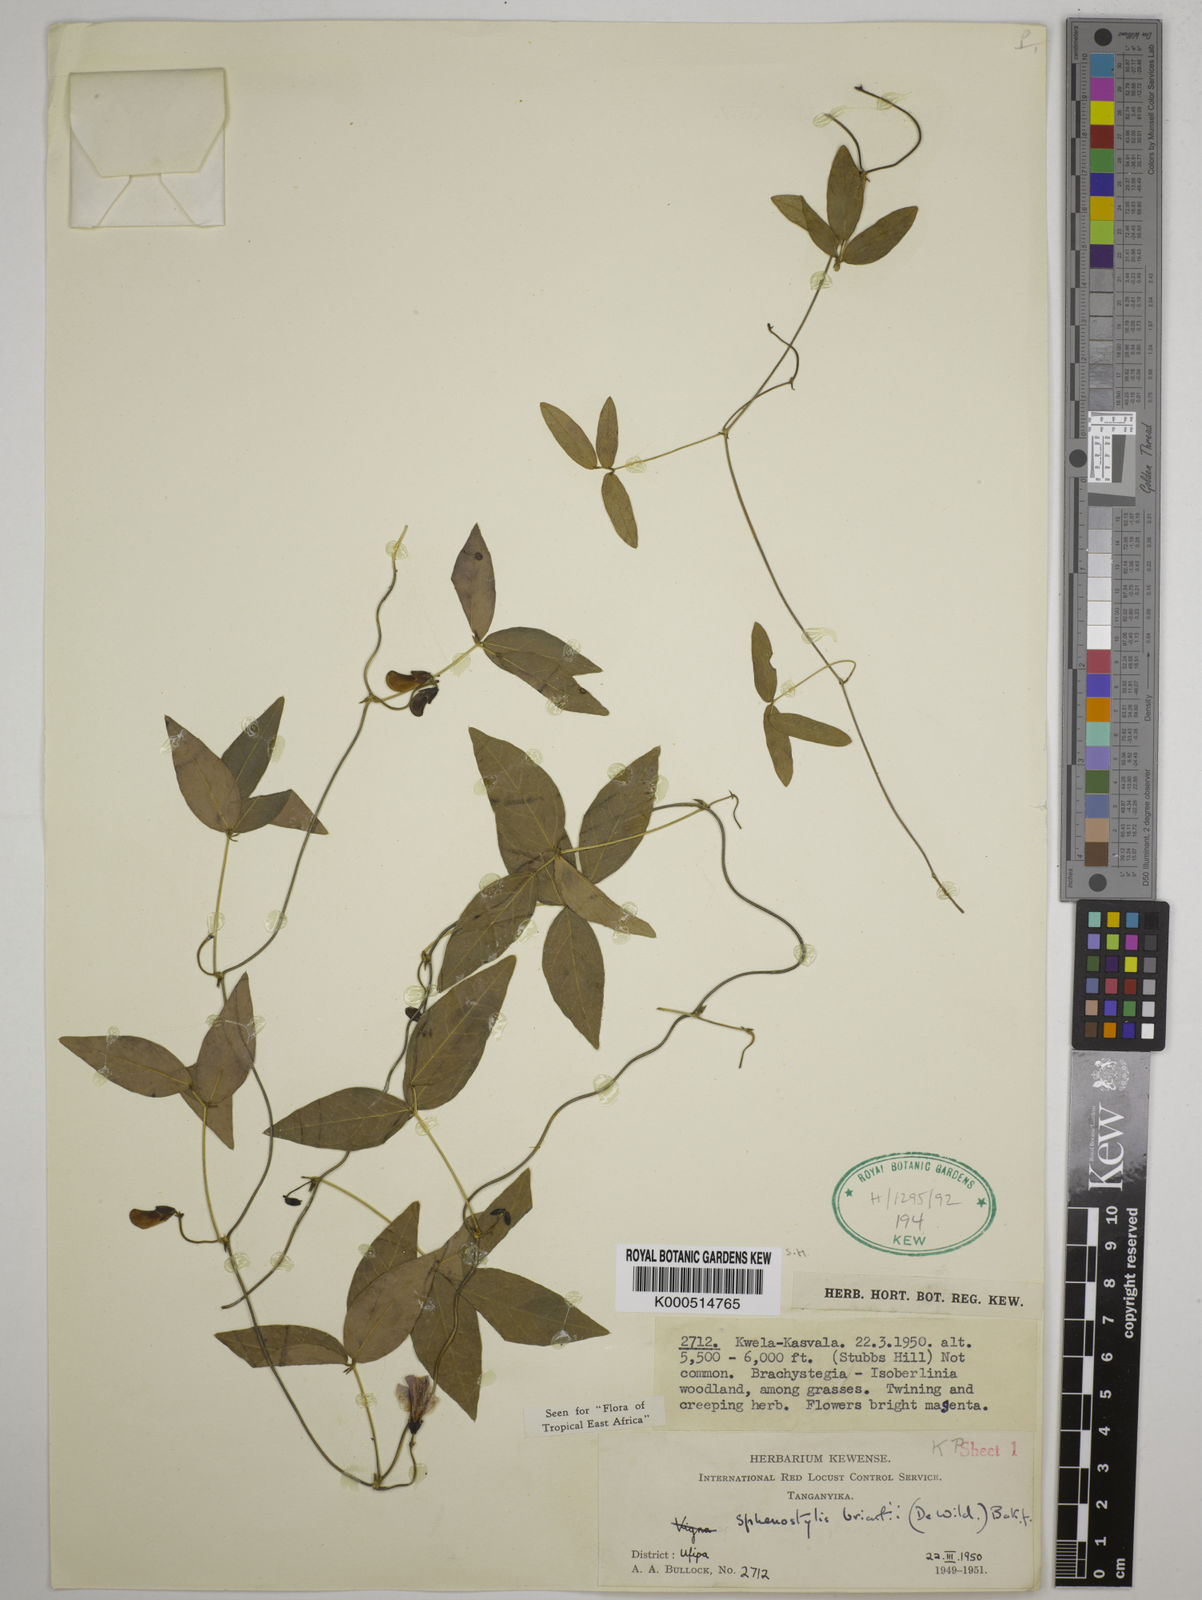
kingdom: Plantae
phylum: Tracheophyta
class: Magnoliopsida
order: Fabales
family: Fabaceae
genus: Sphenostylis
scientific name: Sphenostylis briartii
